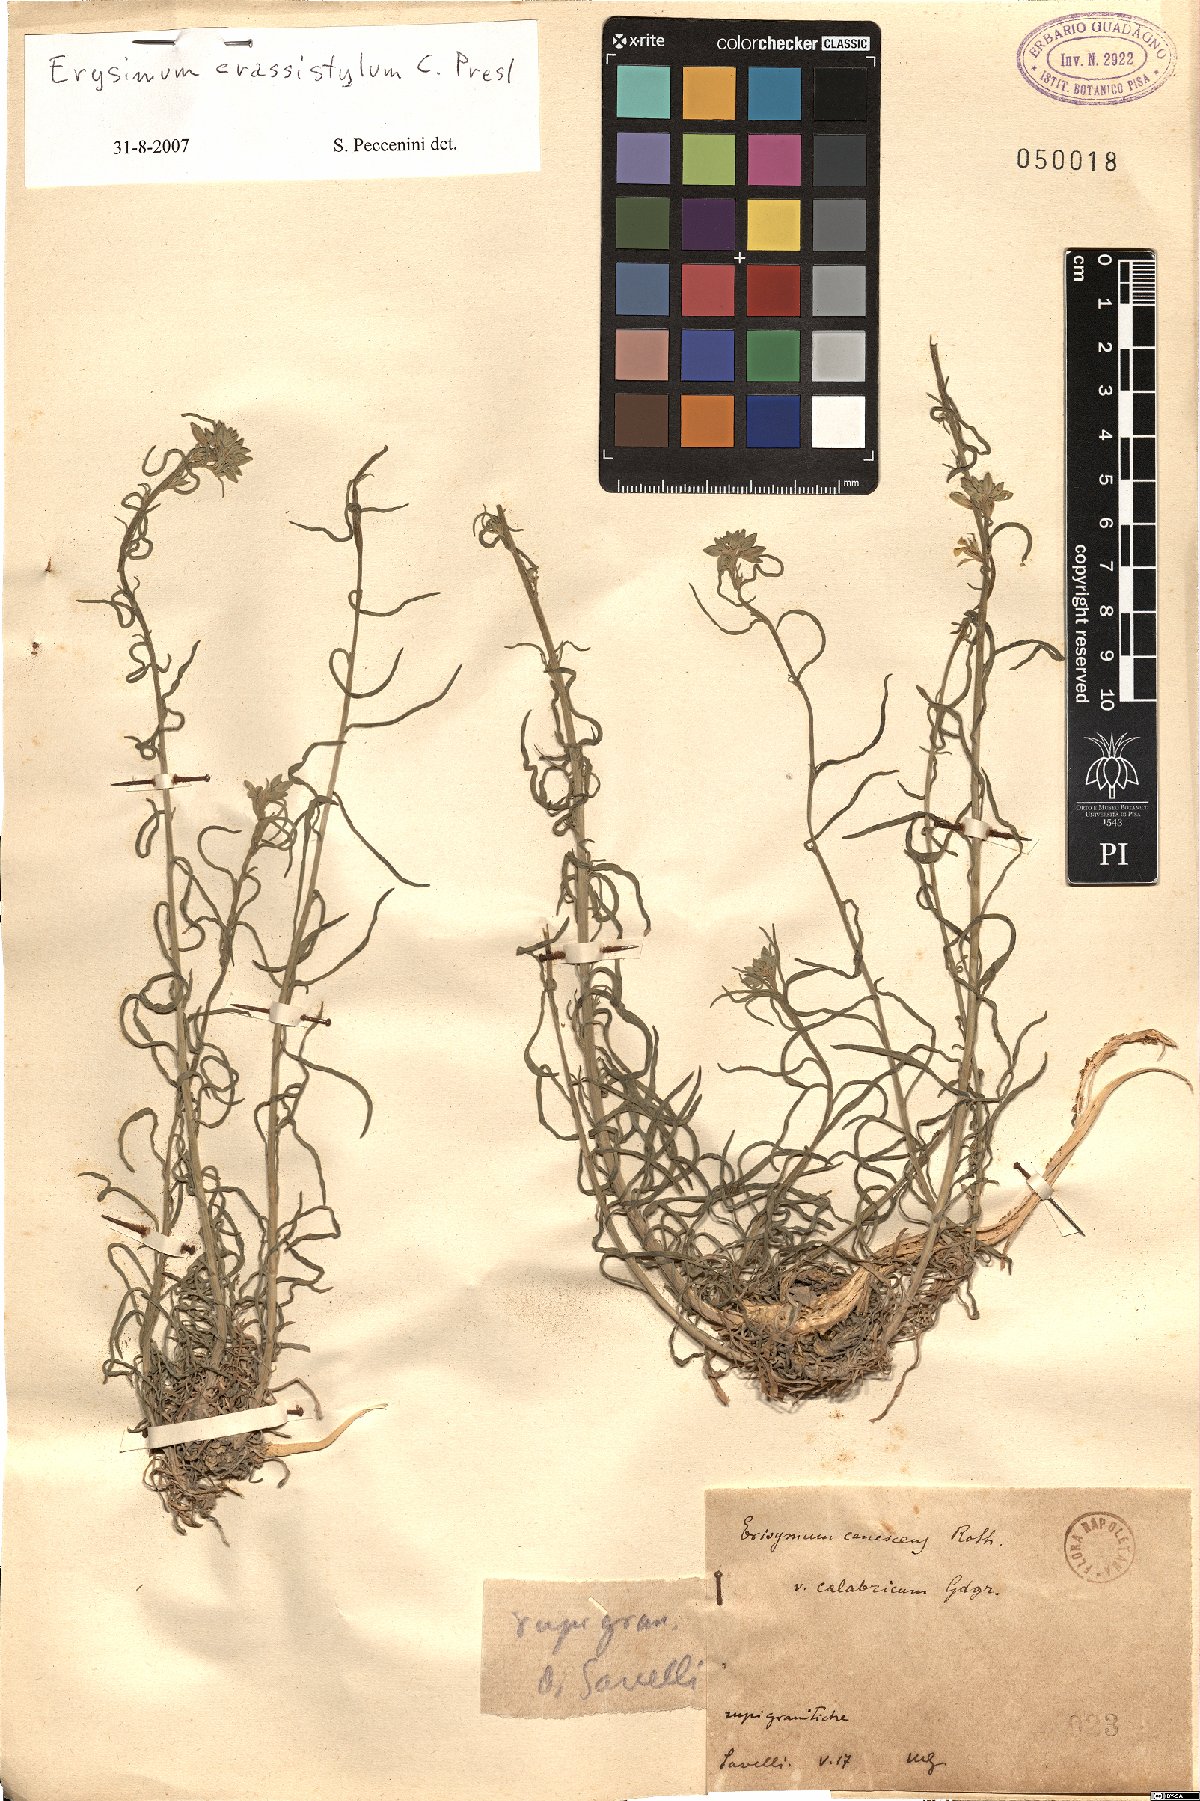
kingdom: Plantae
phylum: Tracheophyta
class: Magnoliopsida
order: Brassicales
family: Brassicaceae
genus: Erysimum
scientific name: Erysimum crassistylum
